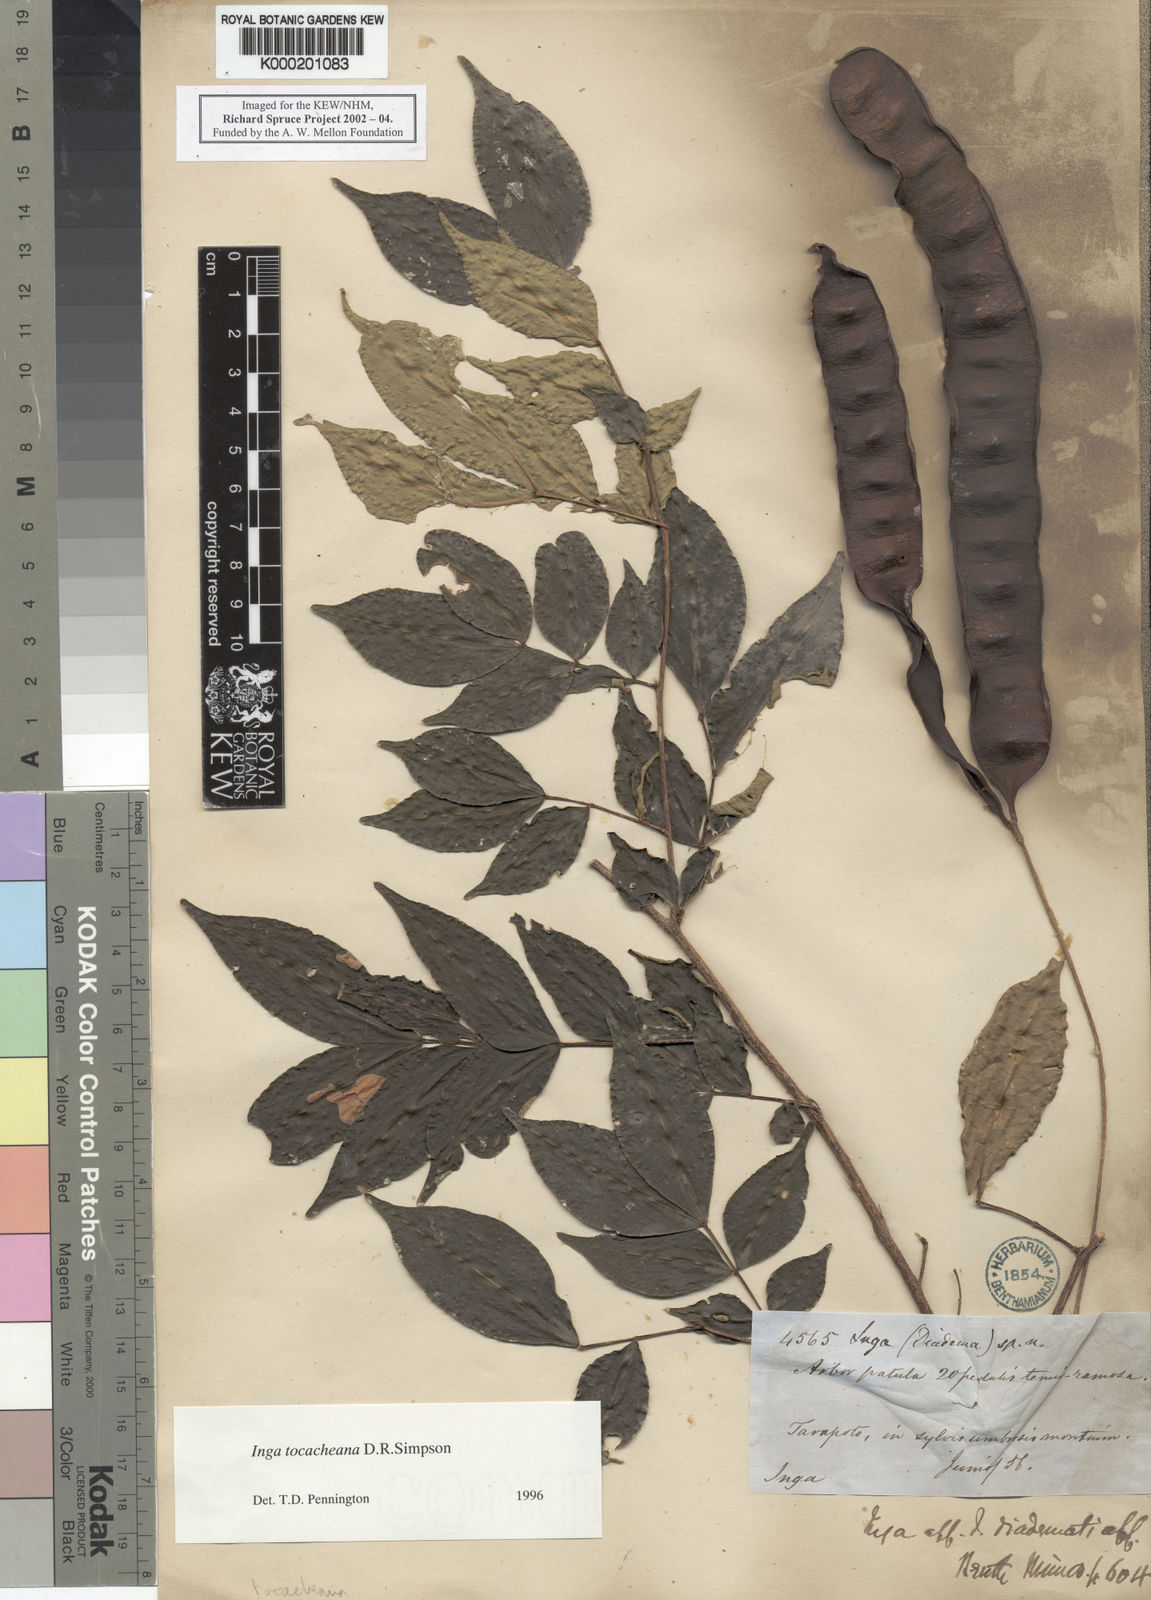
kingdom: Plantae
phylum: Tracheophyta
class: Magnoliopsida
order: Fabales
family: Fabaceae
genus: Inga
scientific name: Inga tocacheana
